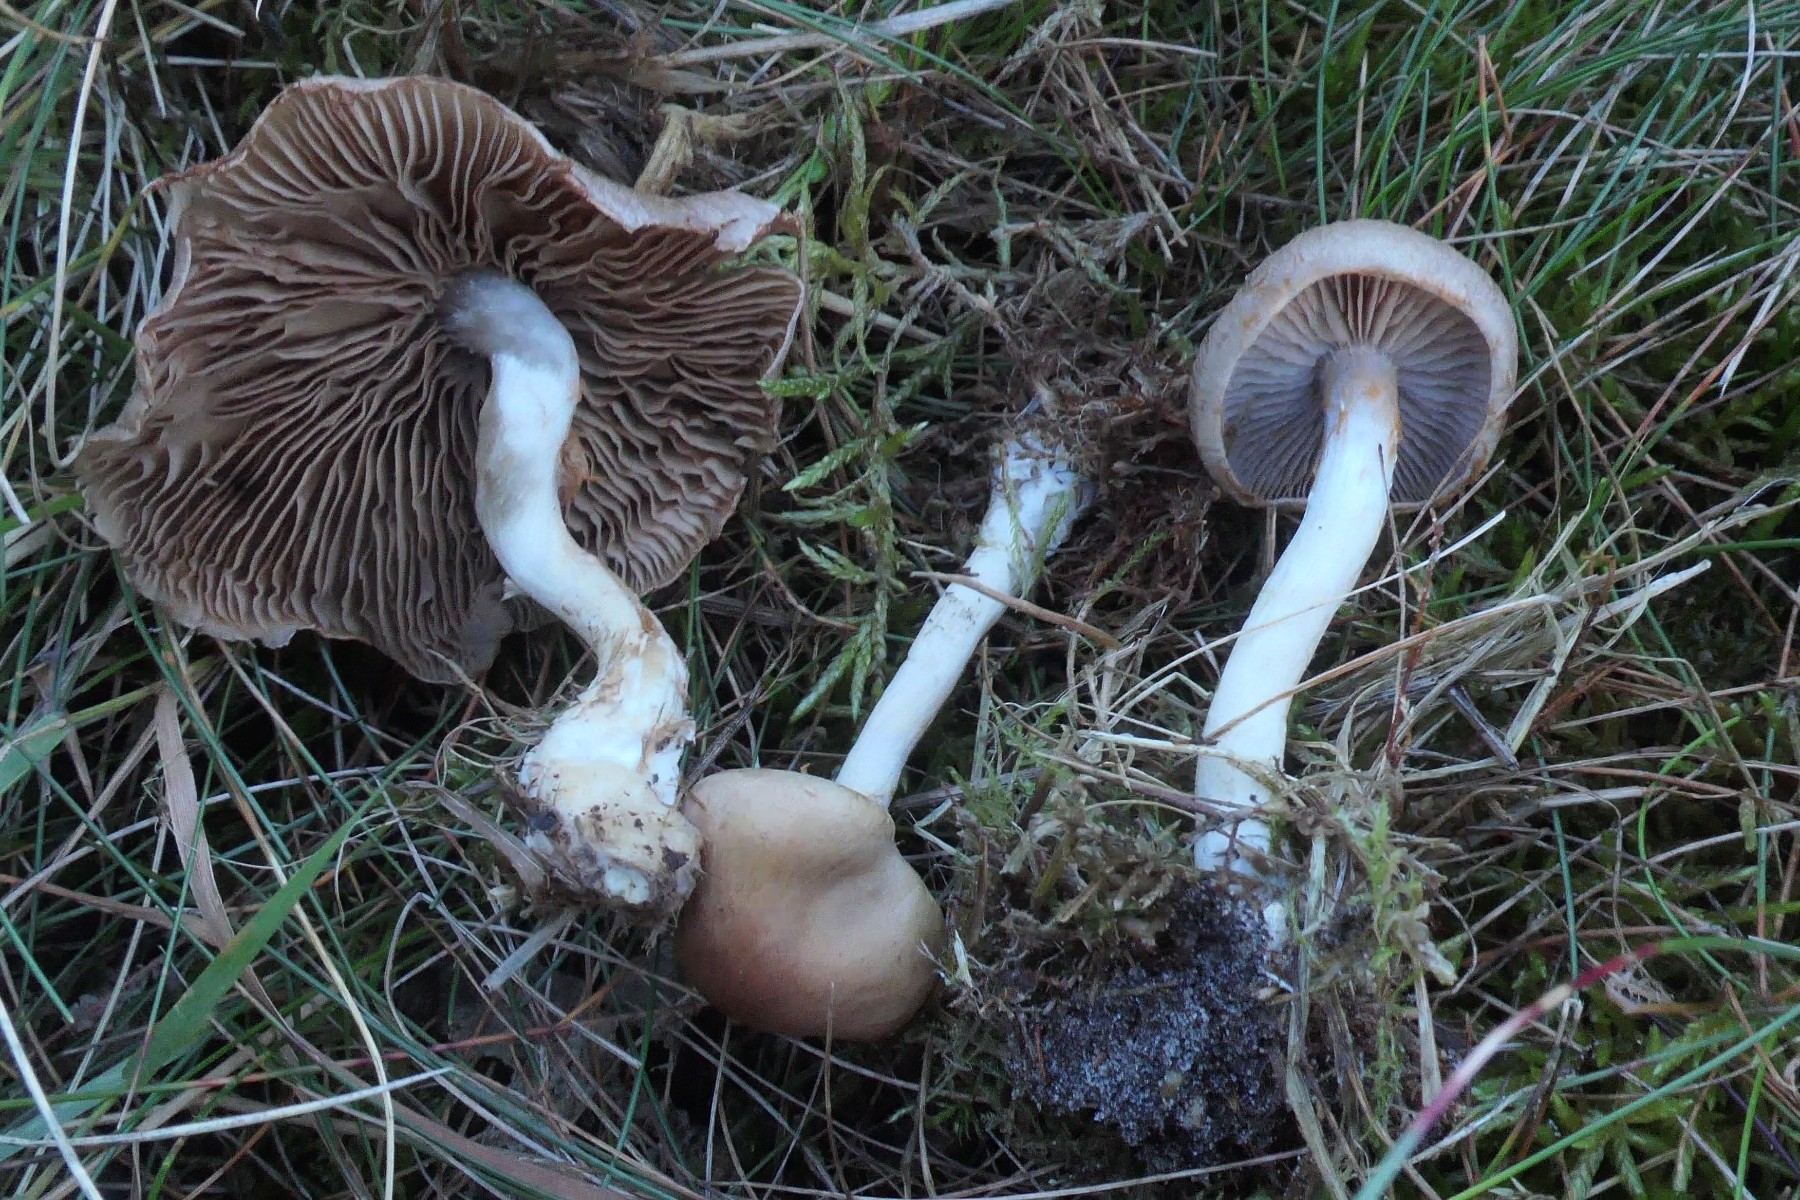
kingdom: Fungi
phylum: Basidiomycota
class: Agaricomycetes
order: Agaricales
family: Cortinariaceae
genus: Cortinarius
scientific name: Cortinarius
